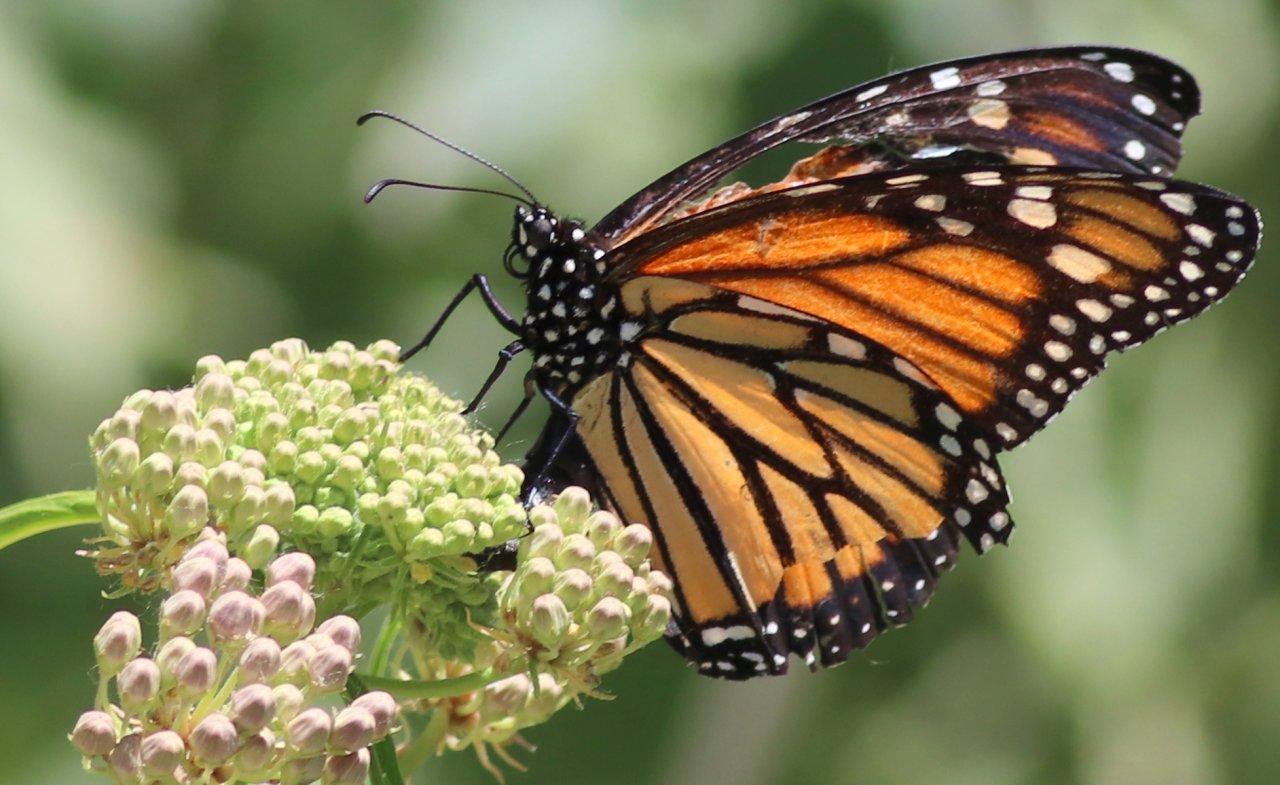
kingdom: Animalia
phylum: Arthropoda
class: Insecta
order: Lepidoptera
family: Nymphalidae
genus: Danaus
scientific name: Danaus plexippus
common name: Monarch
